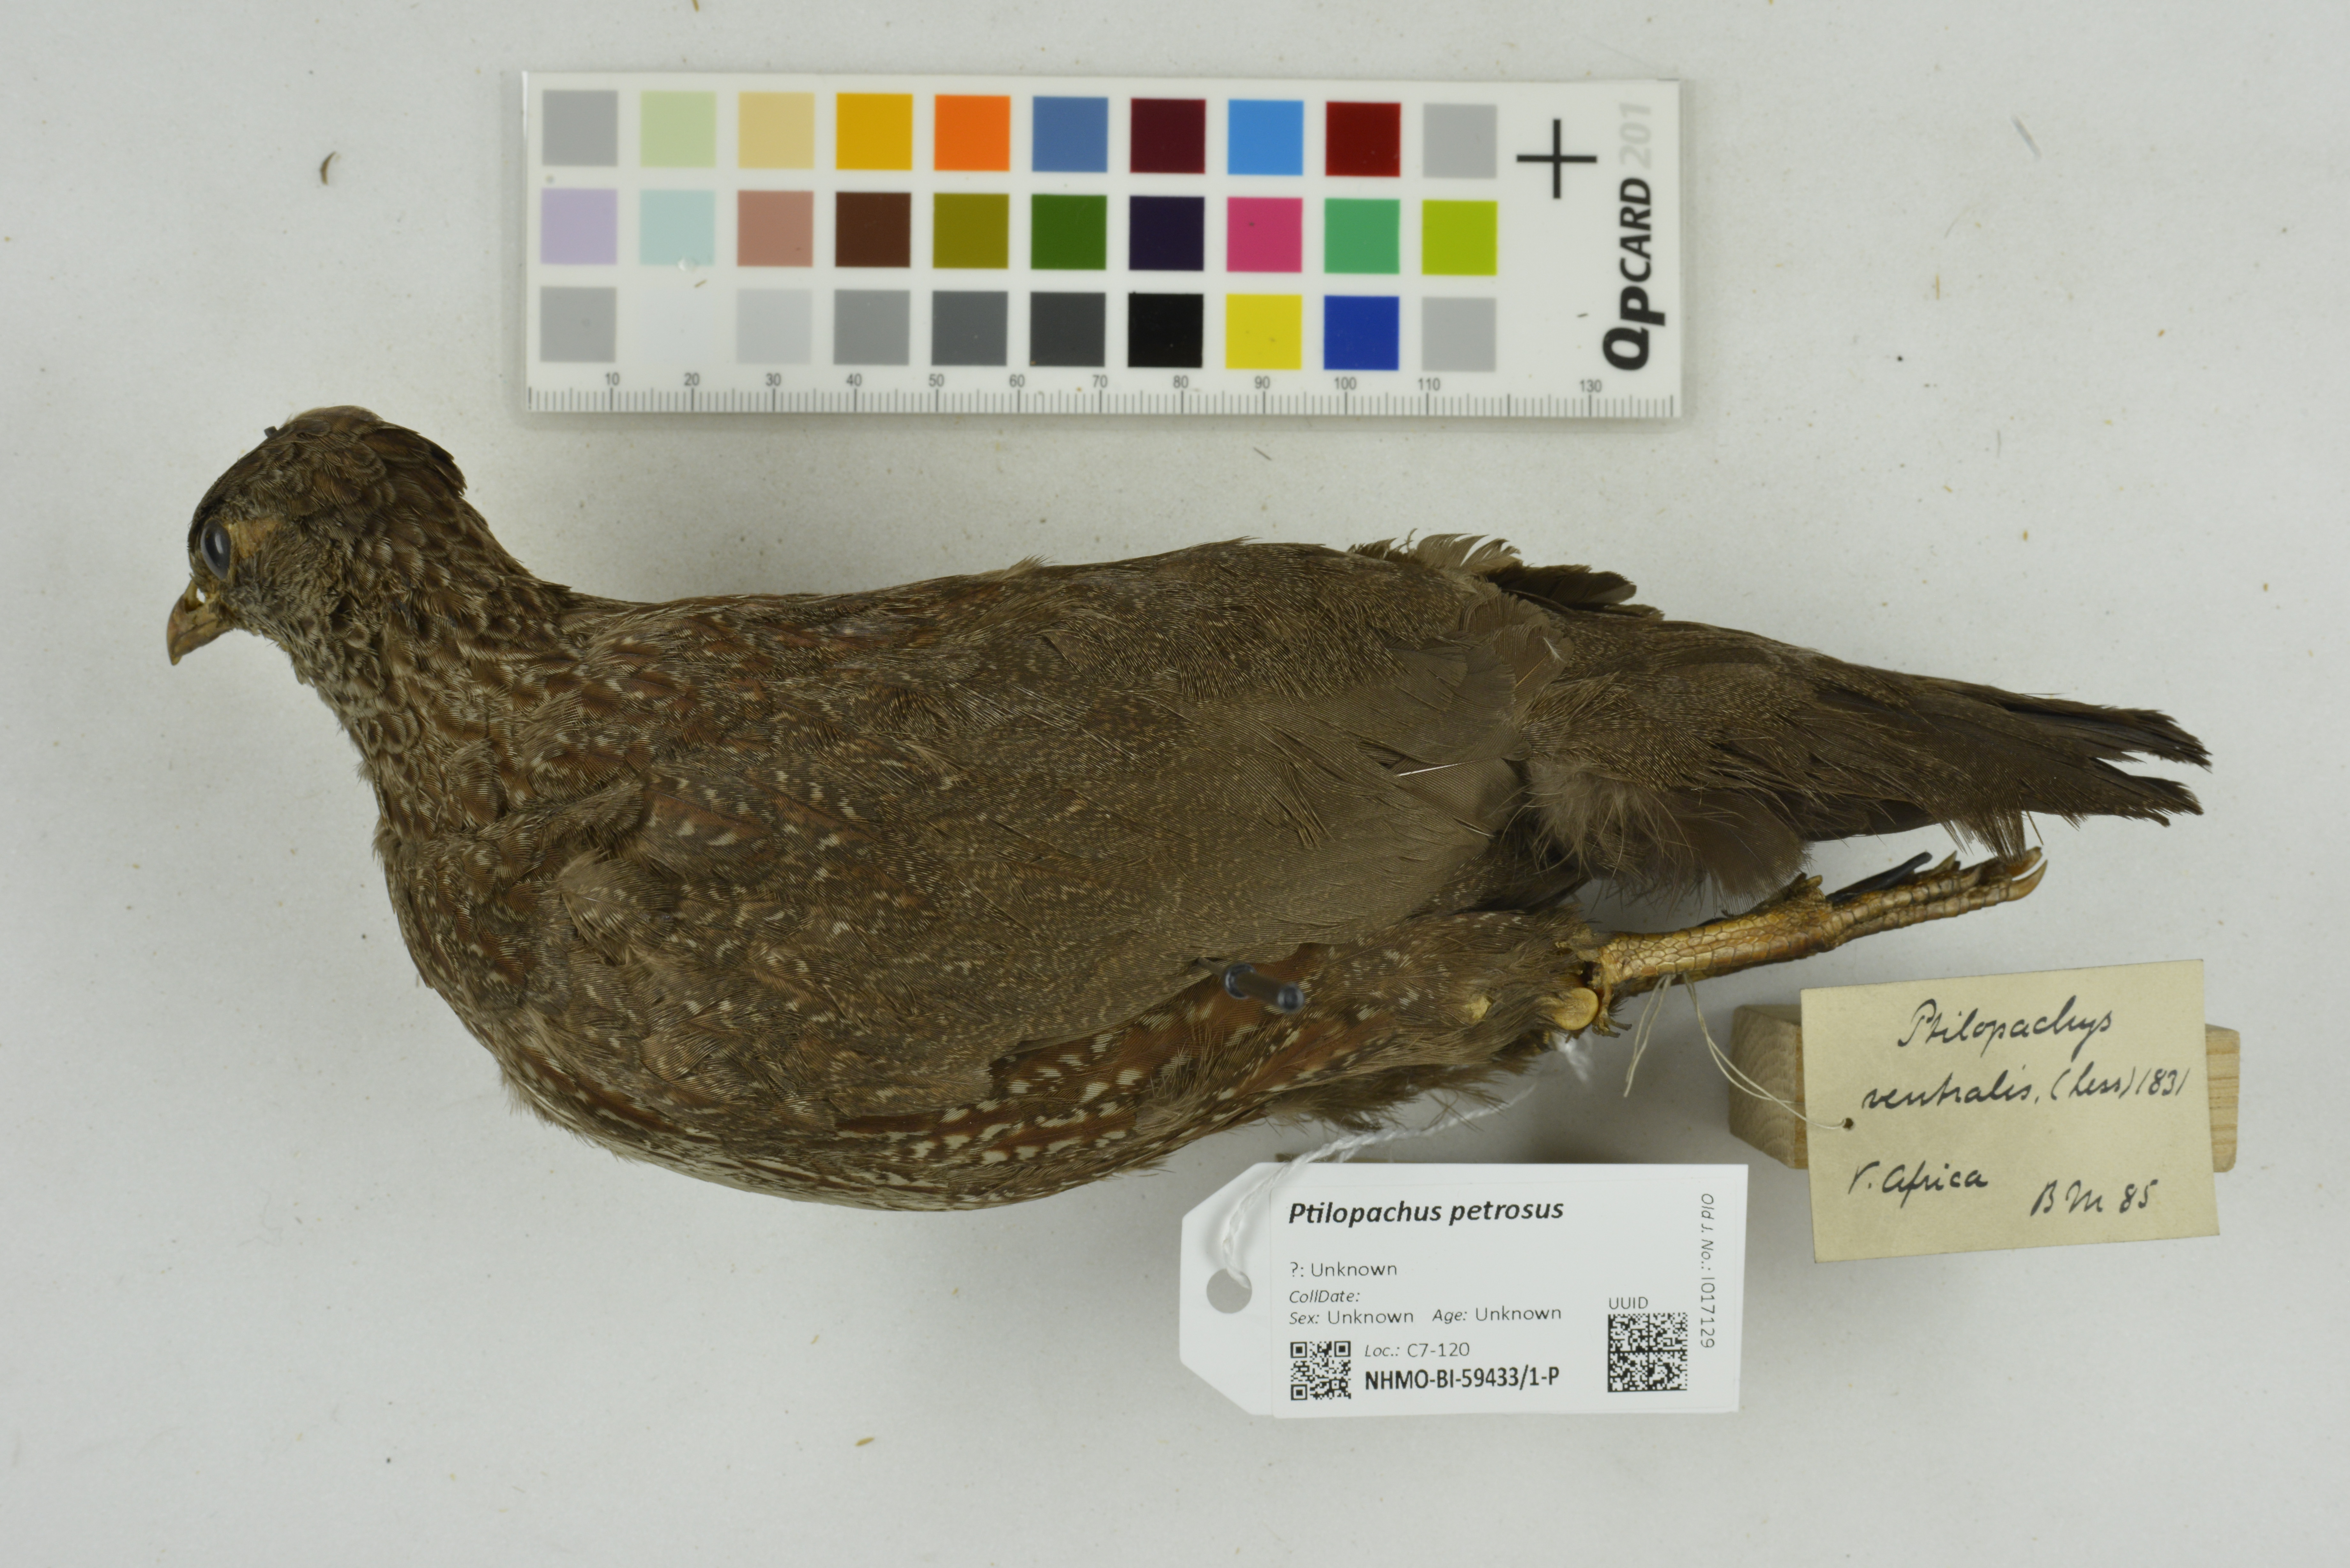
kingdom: Animalia
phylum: Chordata
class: Aves
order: Galliformes
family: Odontophoridae
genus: Ptilopachus
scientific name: Ptilopachus petrosus
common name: Stone partridge
